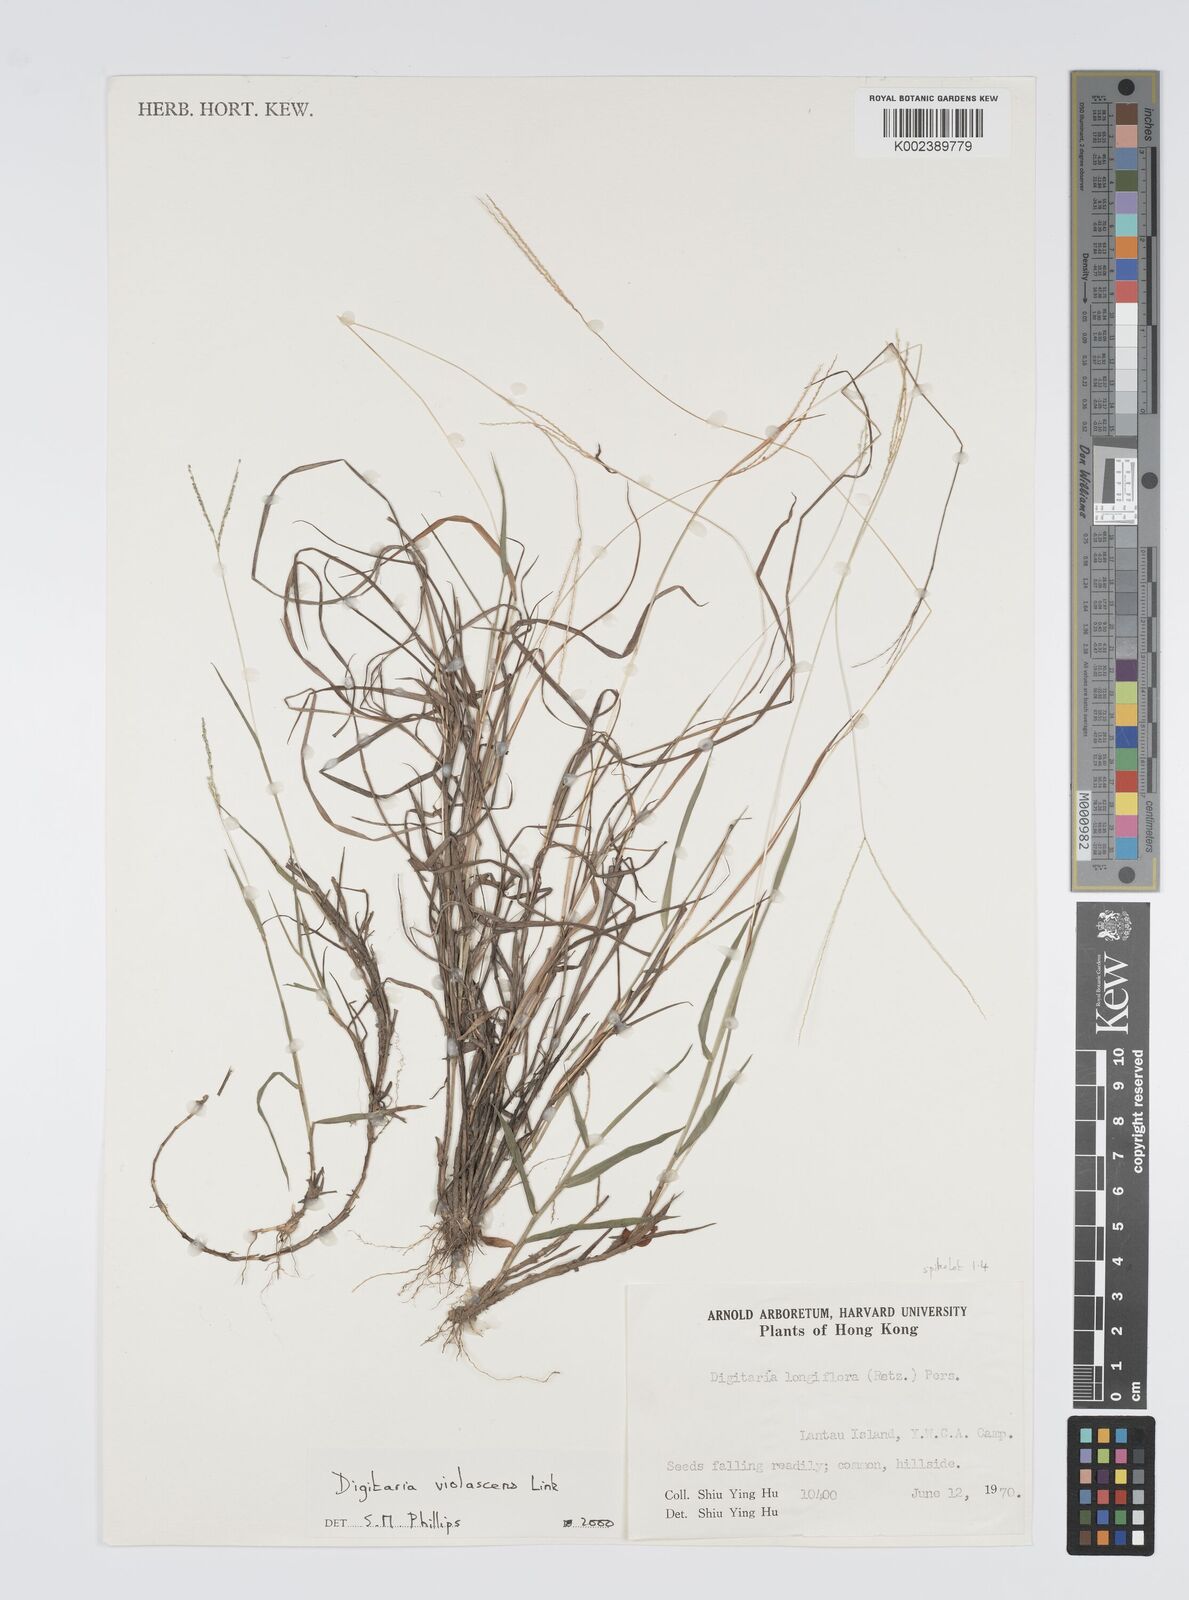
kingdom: Plantae
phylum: Tracheophyta
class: Liliopsida
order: Poales
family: Poaceae
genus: Digitaria
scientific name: Digitaria violascens
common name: Violet crabgrass
